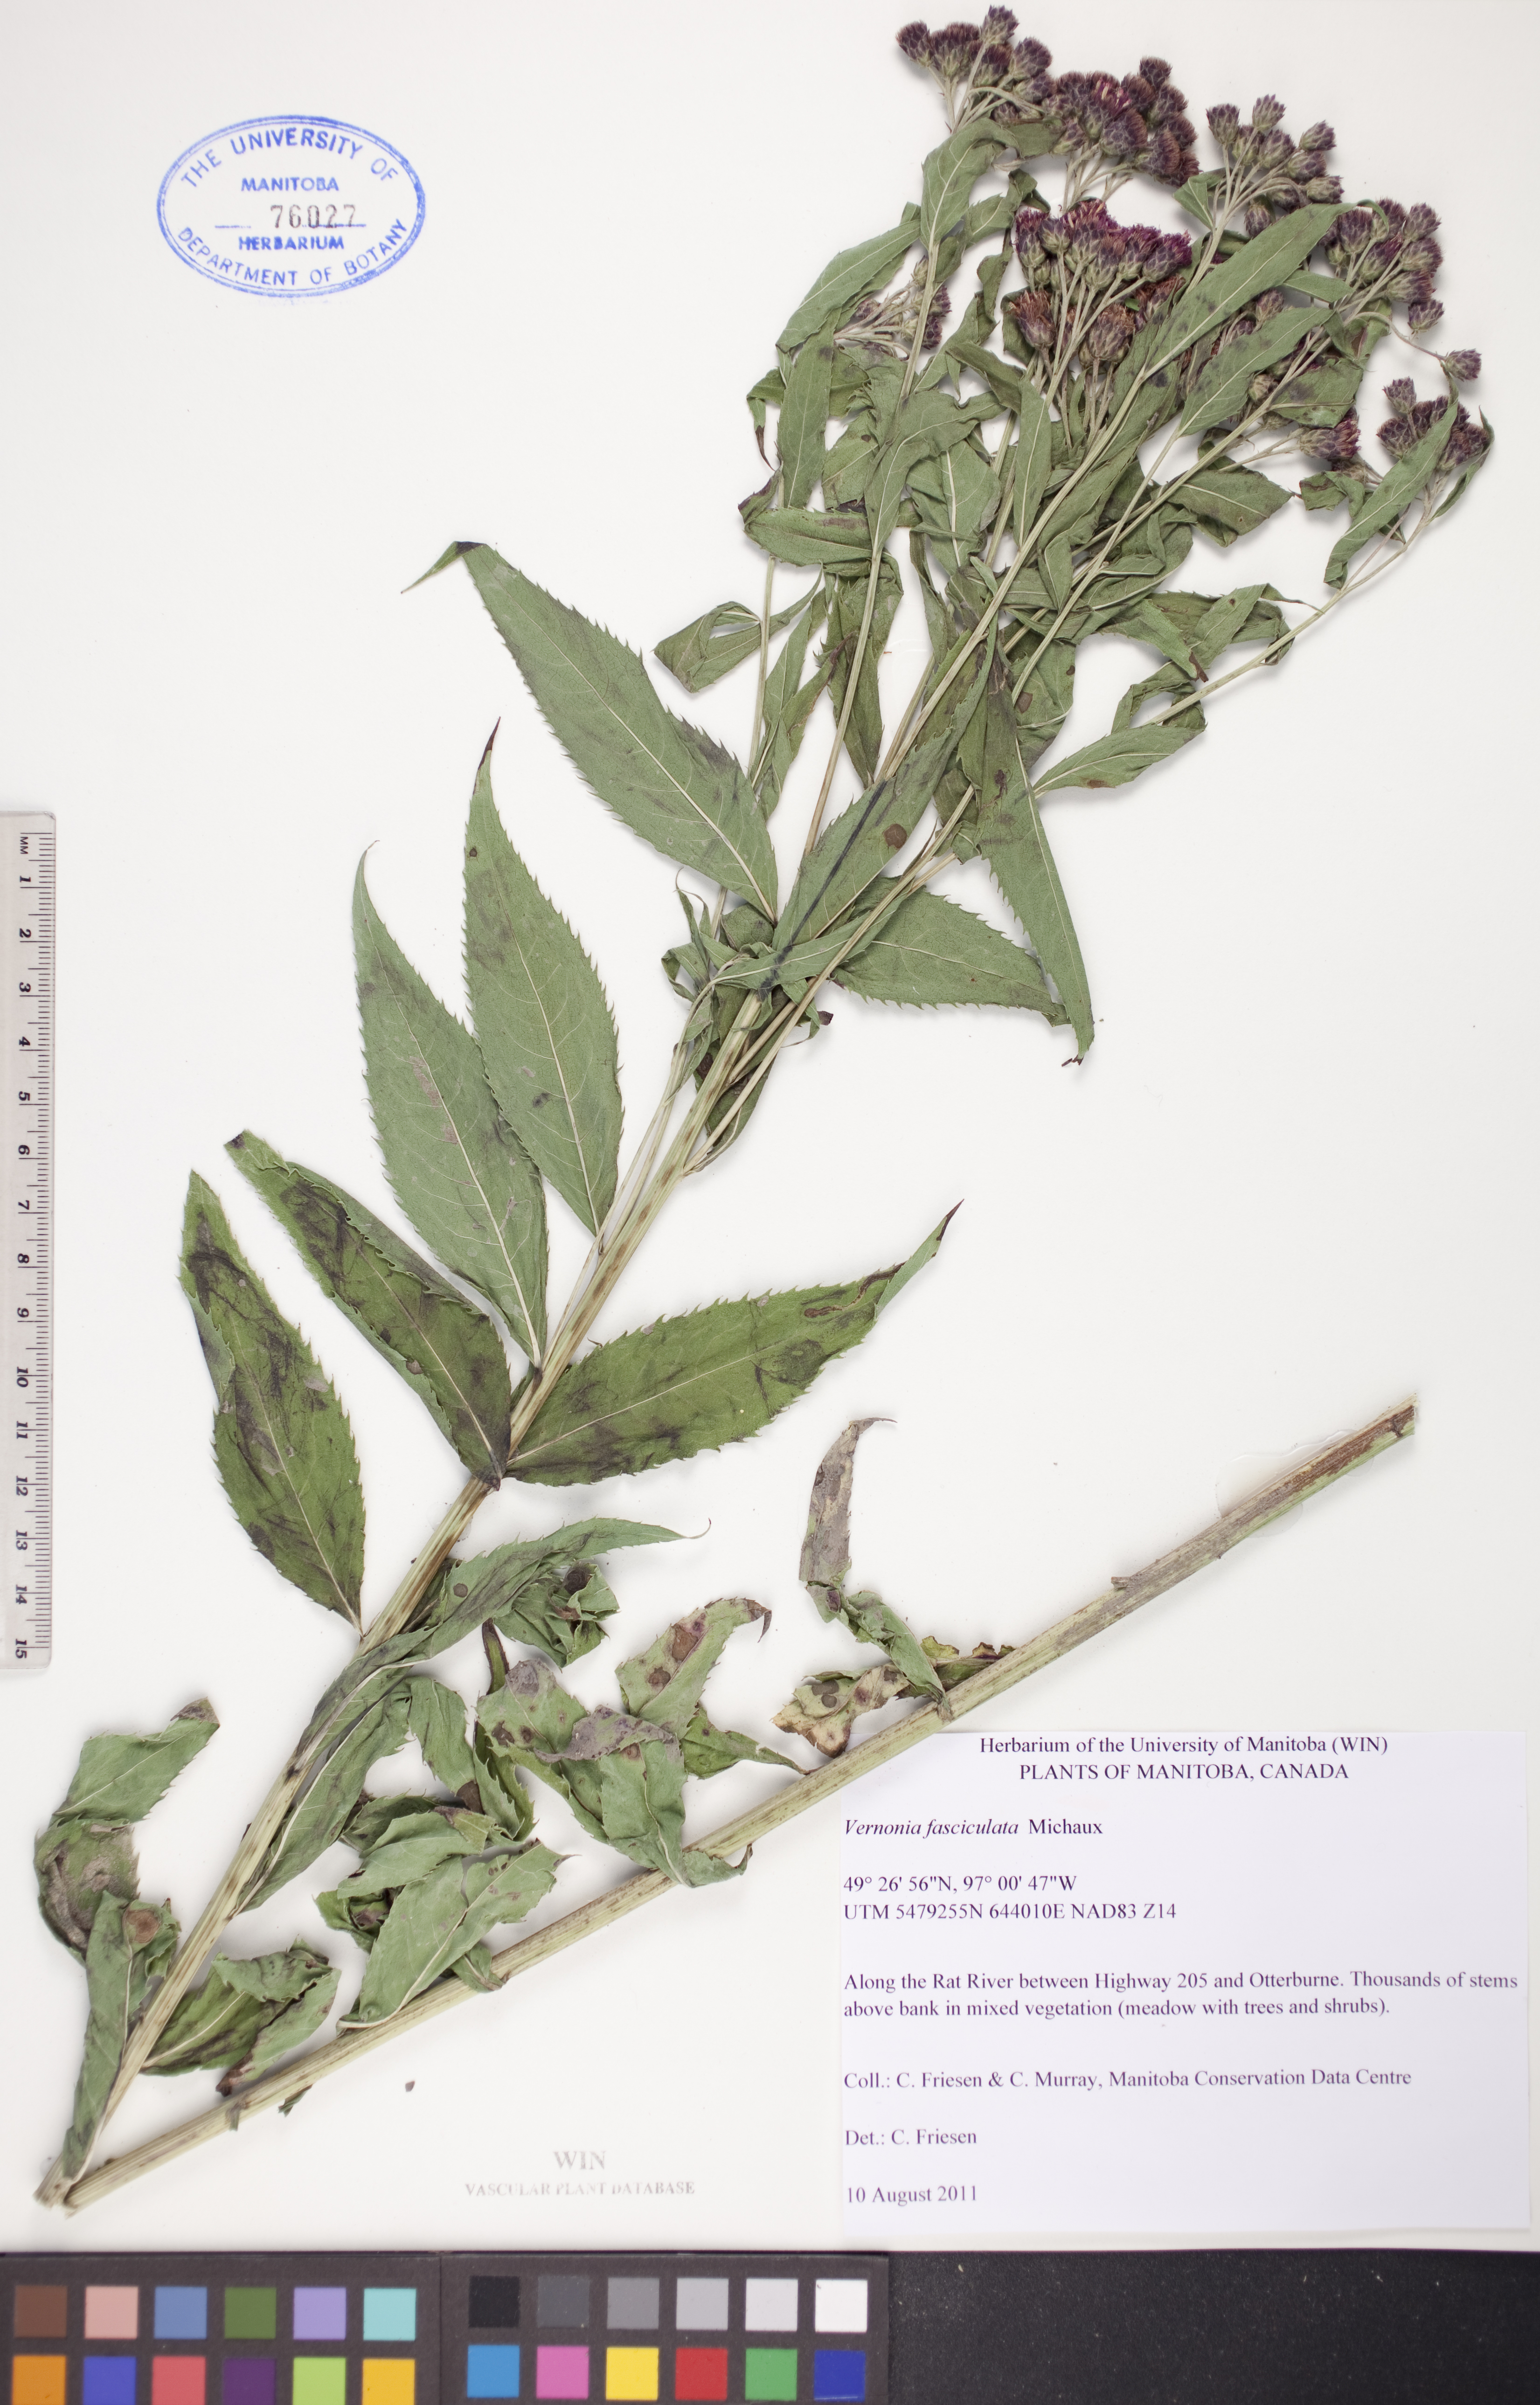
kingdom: Plantae
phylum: Tracheophyta
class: Magnoliopsida
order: Asterales
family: Asteraceae
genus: Vernonia
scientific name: Vernonia fasciculata
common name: Fascicled ironweed
